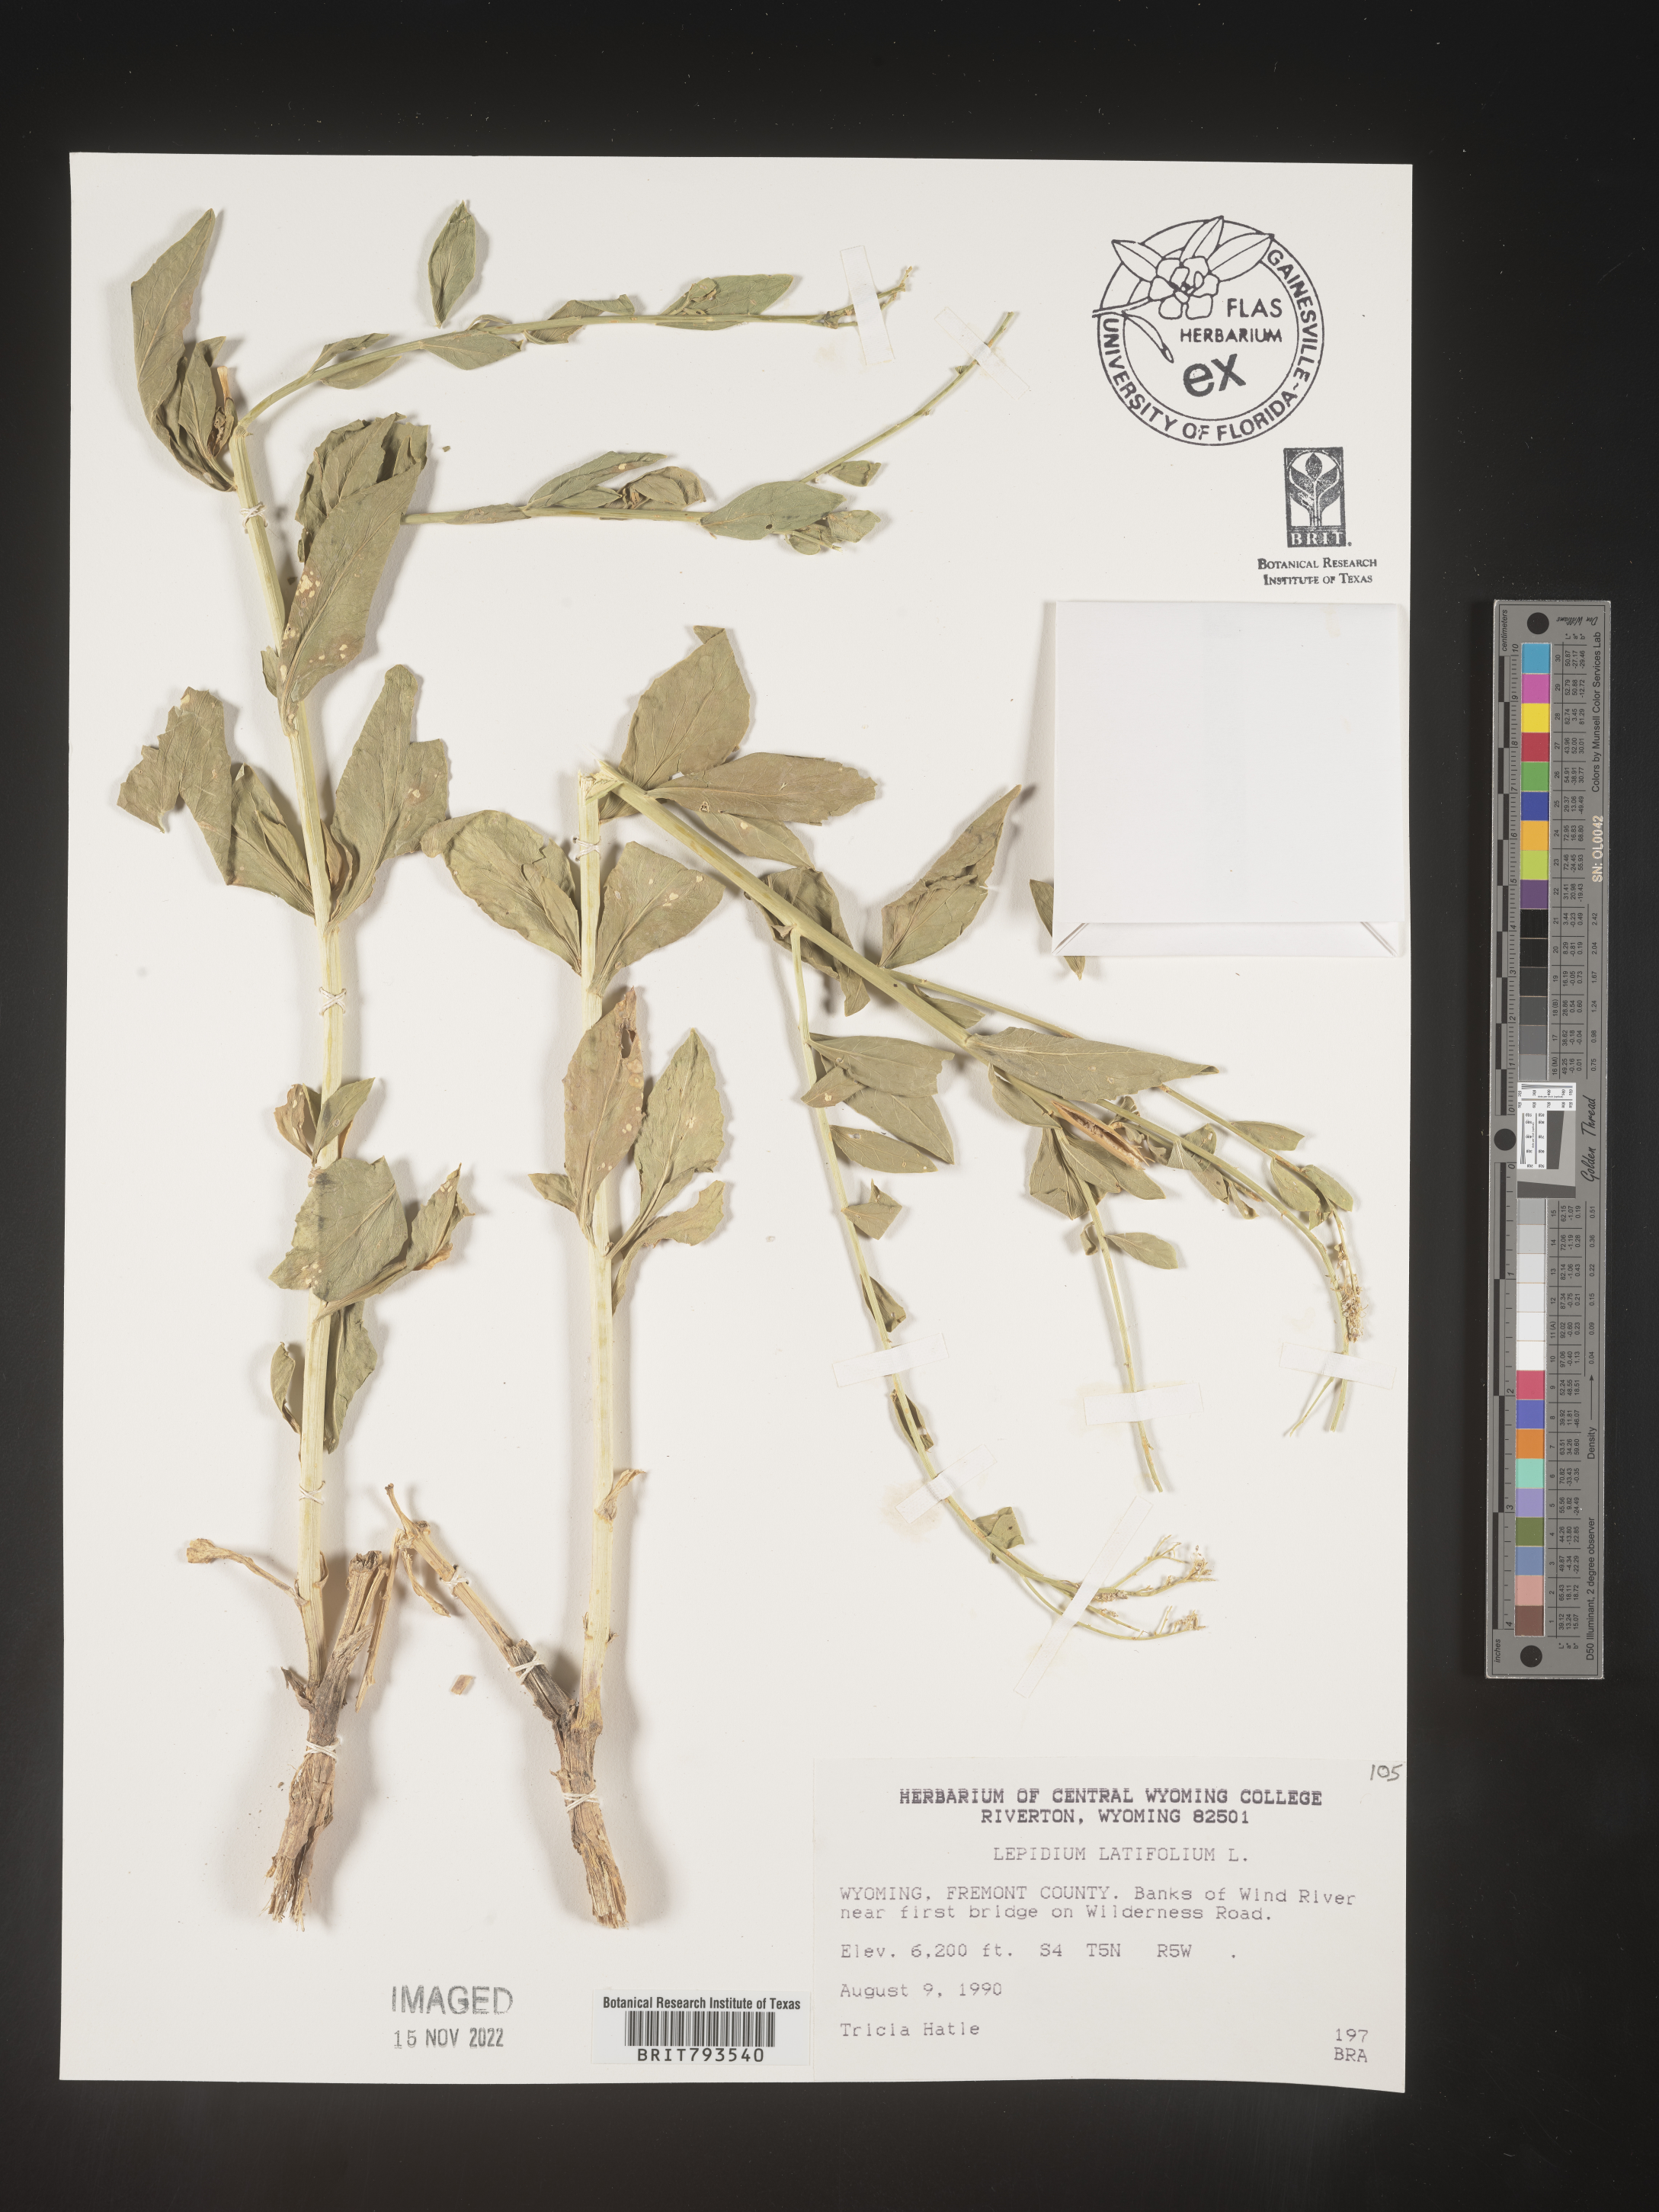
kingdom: Plantae
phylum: Tracheophyta
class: Magnoliopsida
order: Brassicales
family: Brassicaceae
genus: Lepidium
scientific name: Lepidium latifolium
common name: Dittander
